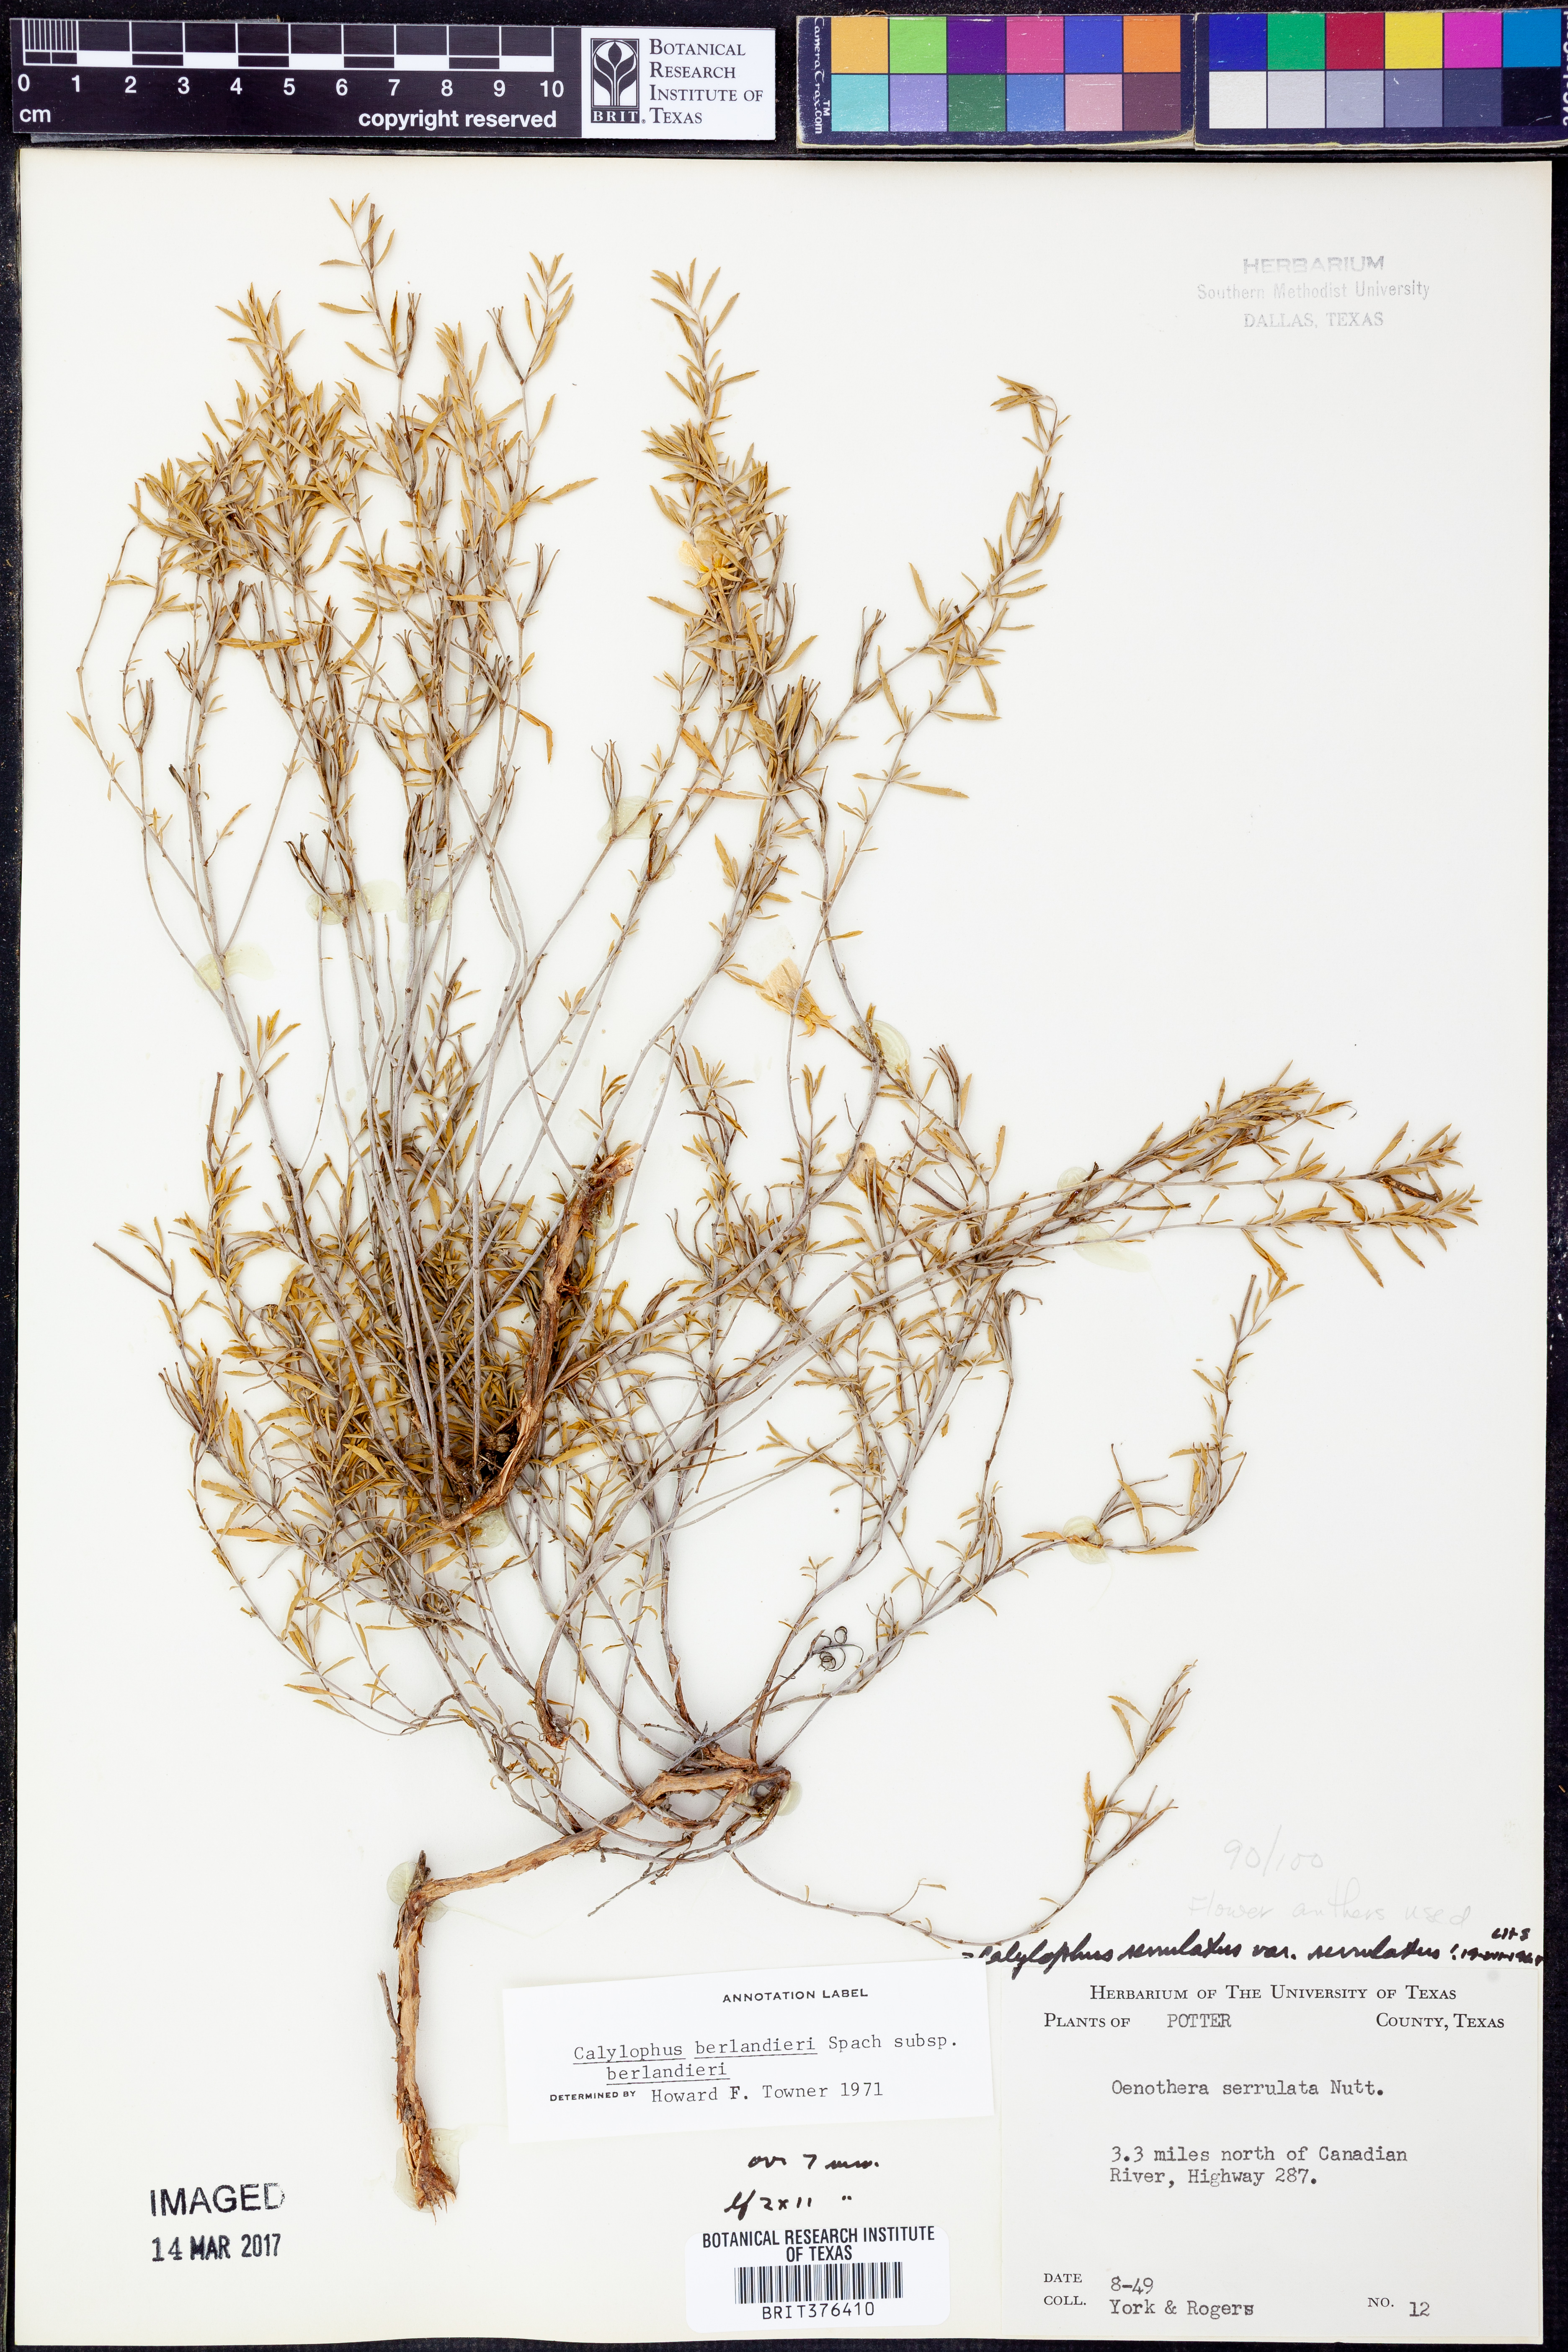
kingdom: Plantae
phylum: Tracheophyta
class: Magnoliopsida
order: Myrtales
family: Onagraceae
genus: Oenothera
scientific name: Oenothera capillifolia
